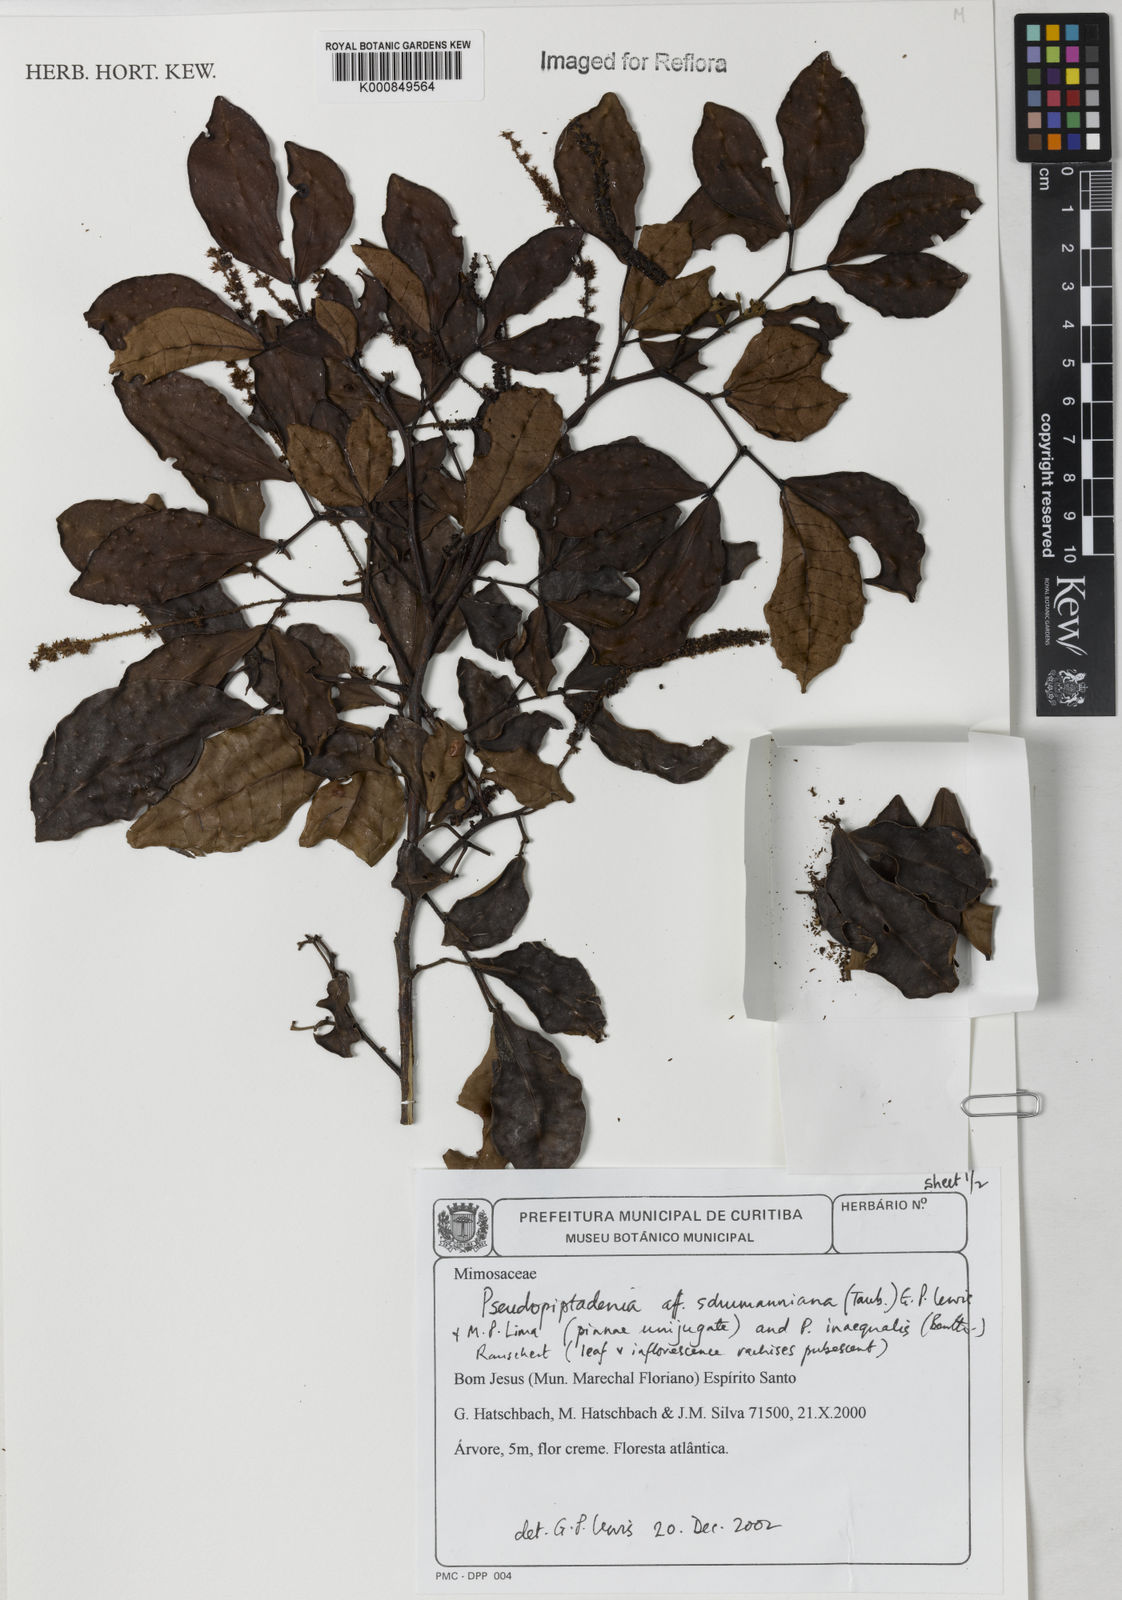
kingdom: Plantae
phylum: Tracheophyta
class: Magnoliopsida
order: Fabales
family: Fabaceae
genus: Pseudopiptadenia
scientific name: Pseudopiptadenia schumanniana
